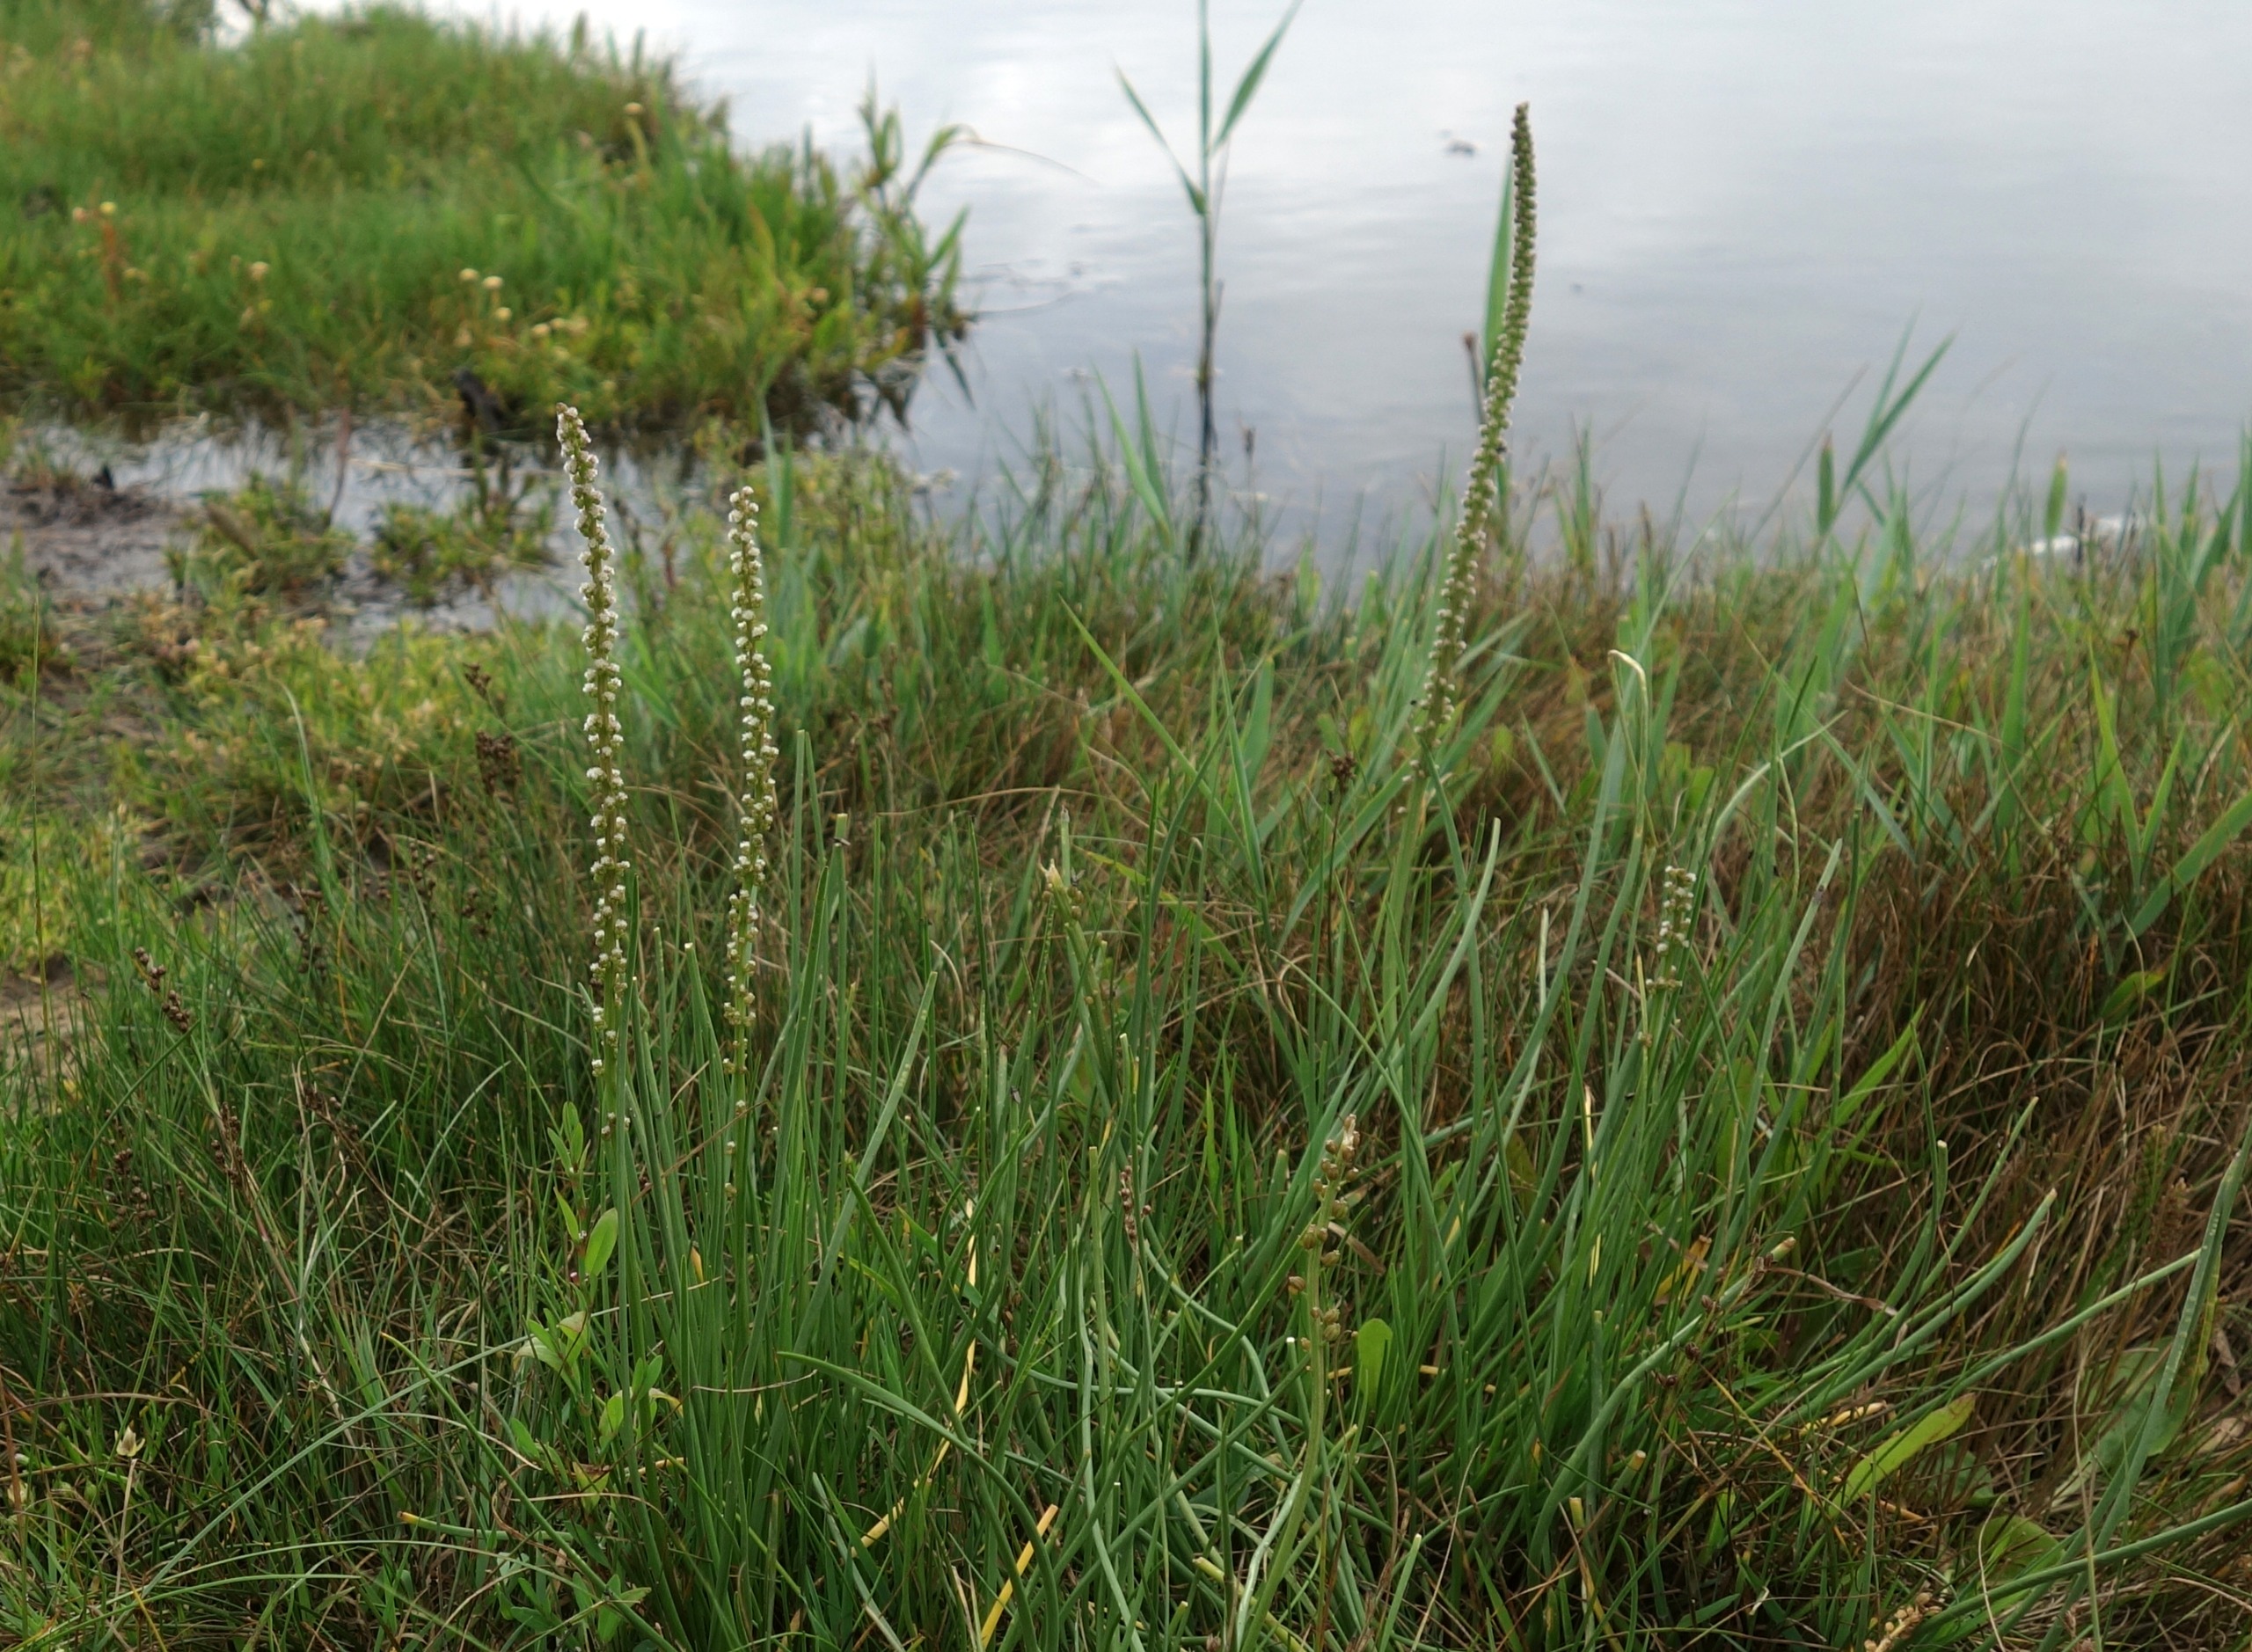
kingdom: Plantae
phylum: Tracheophyta
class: Liliopsida
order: Alismatales
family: Juncaginaceae
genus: Triglochin
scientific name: Triglochin maritima
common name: Strand-trehage
